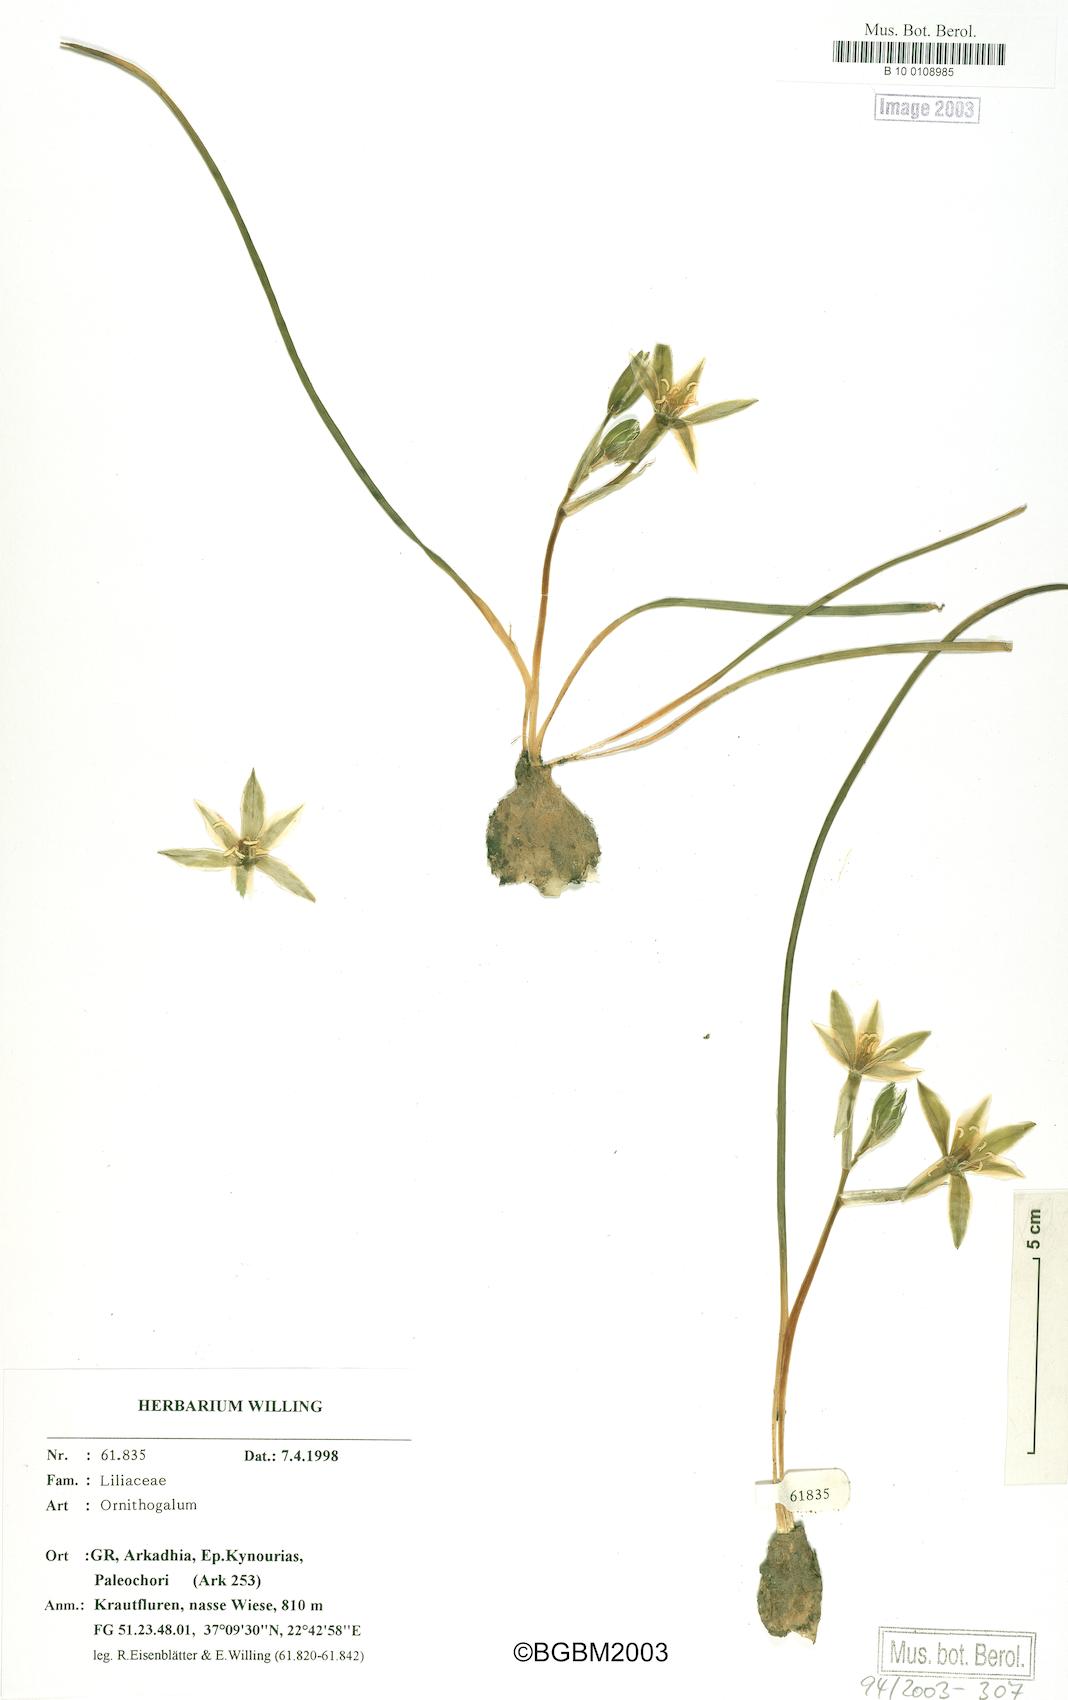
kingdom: Plantae
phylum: Tracheophyta
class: Liliopsida
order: Asparagales
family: Asparagaceae
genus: Ornithogalum
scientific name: Ornithogalum
